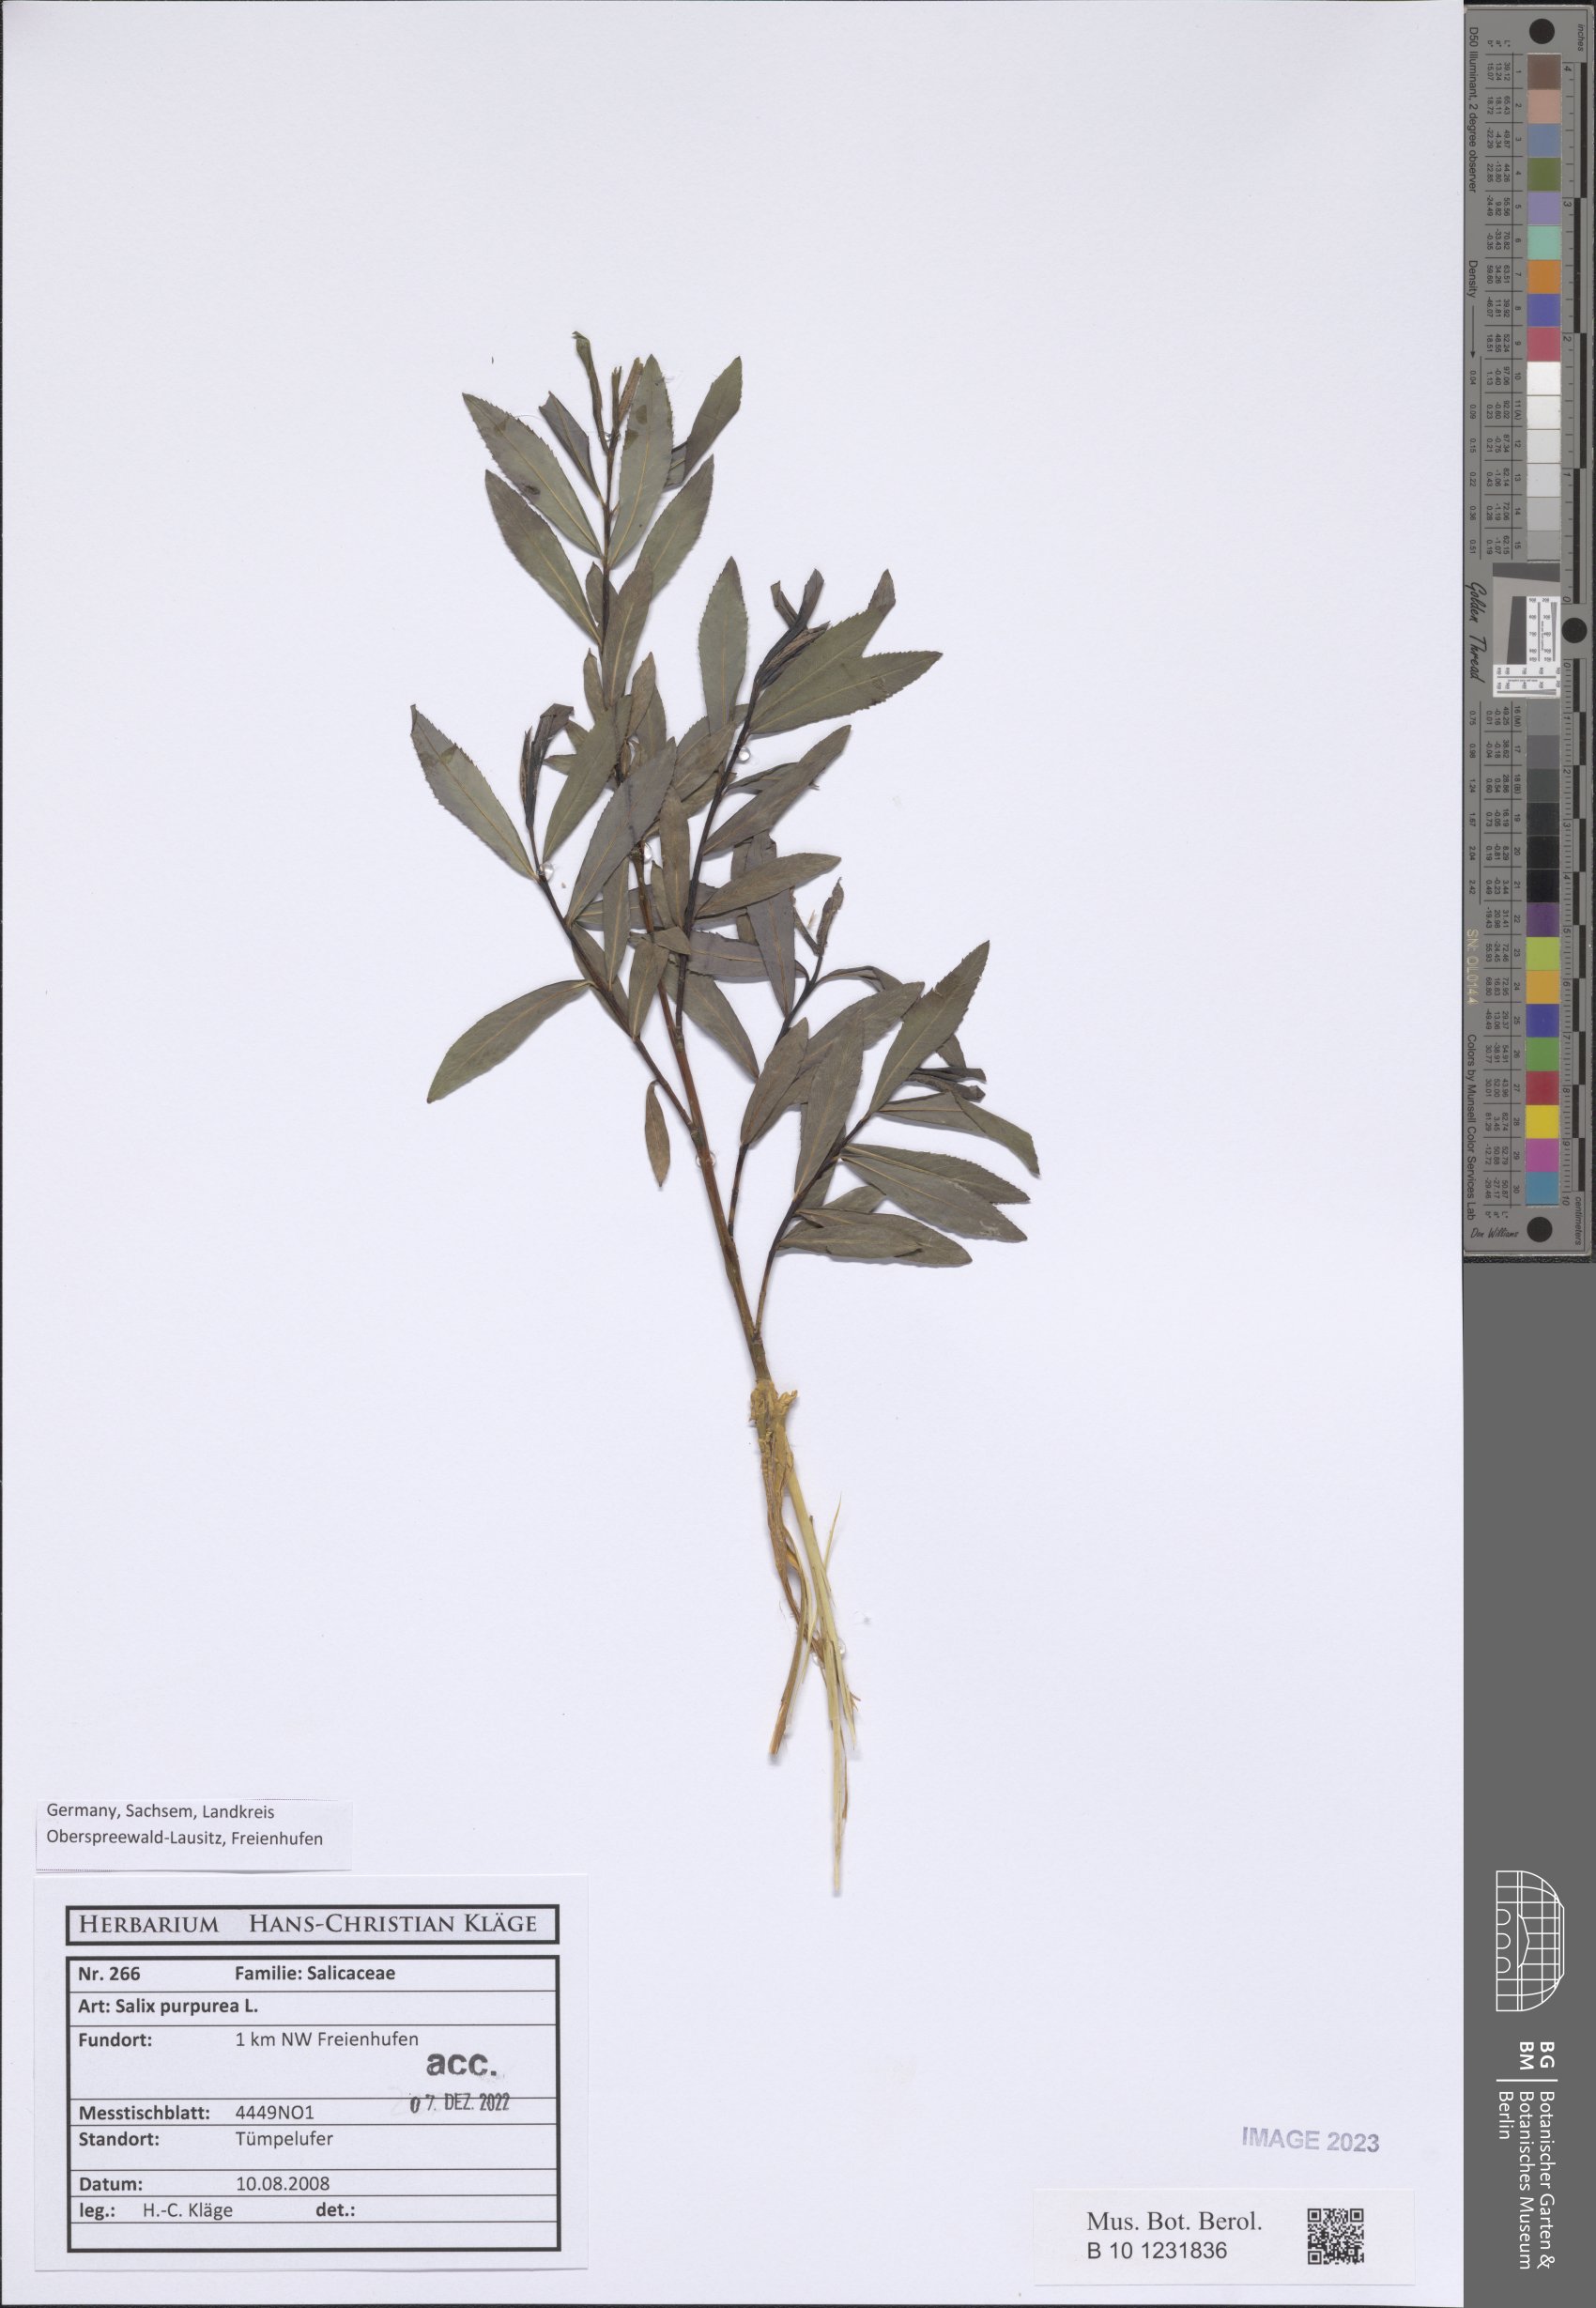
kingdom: Plantae
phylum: Tracheophyta
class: Magnoliopsida
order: Malpighiales
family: Salicaceae
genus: Salix
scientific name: Salix purpurea
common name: Purple willow
